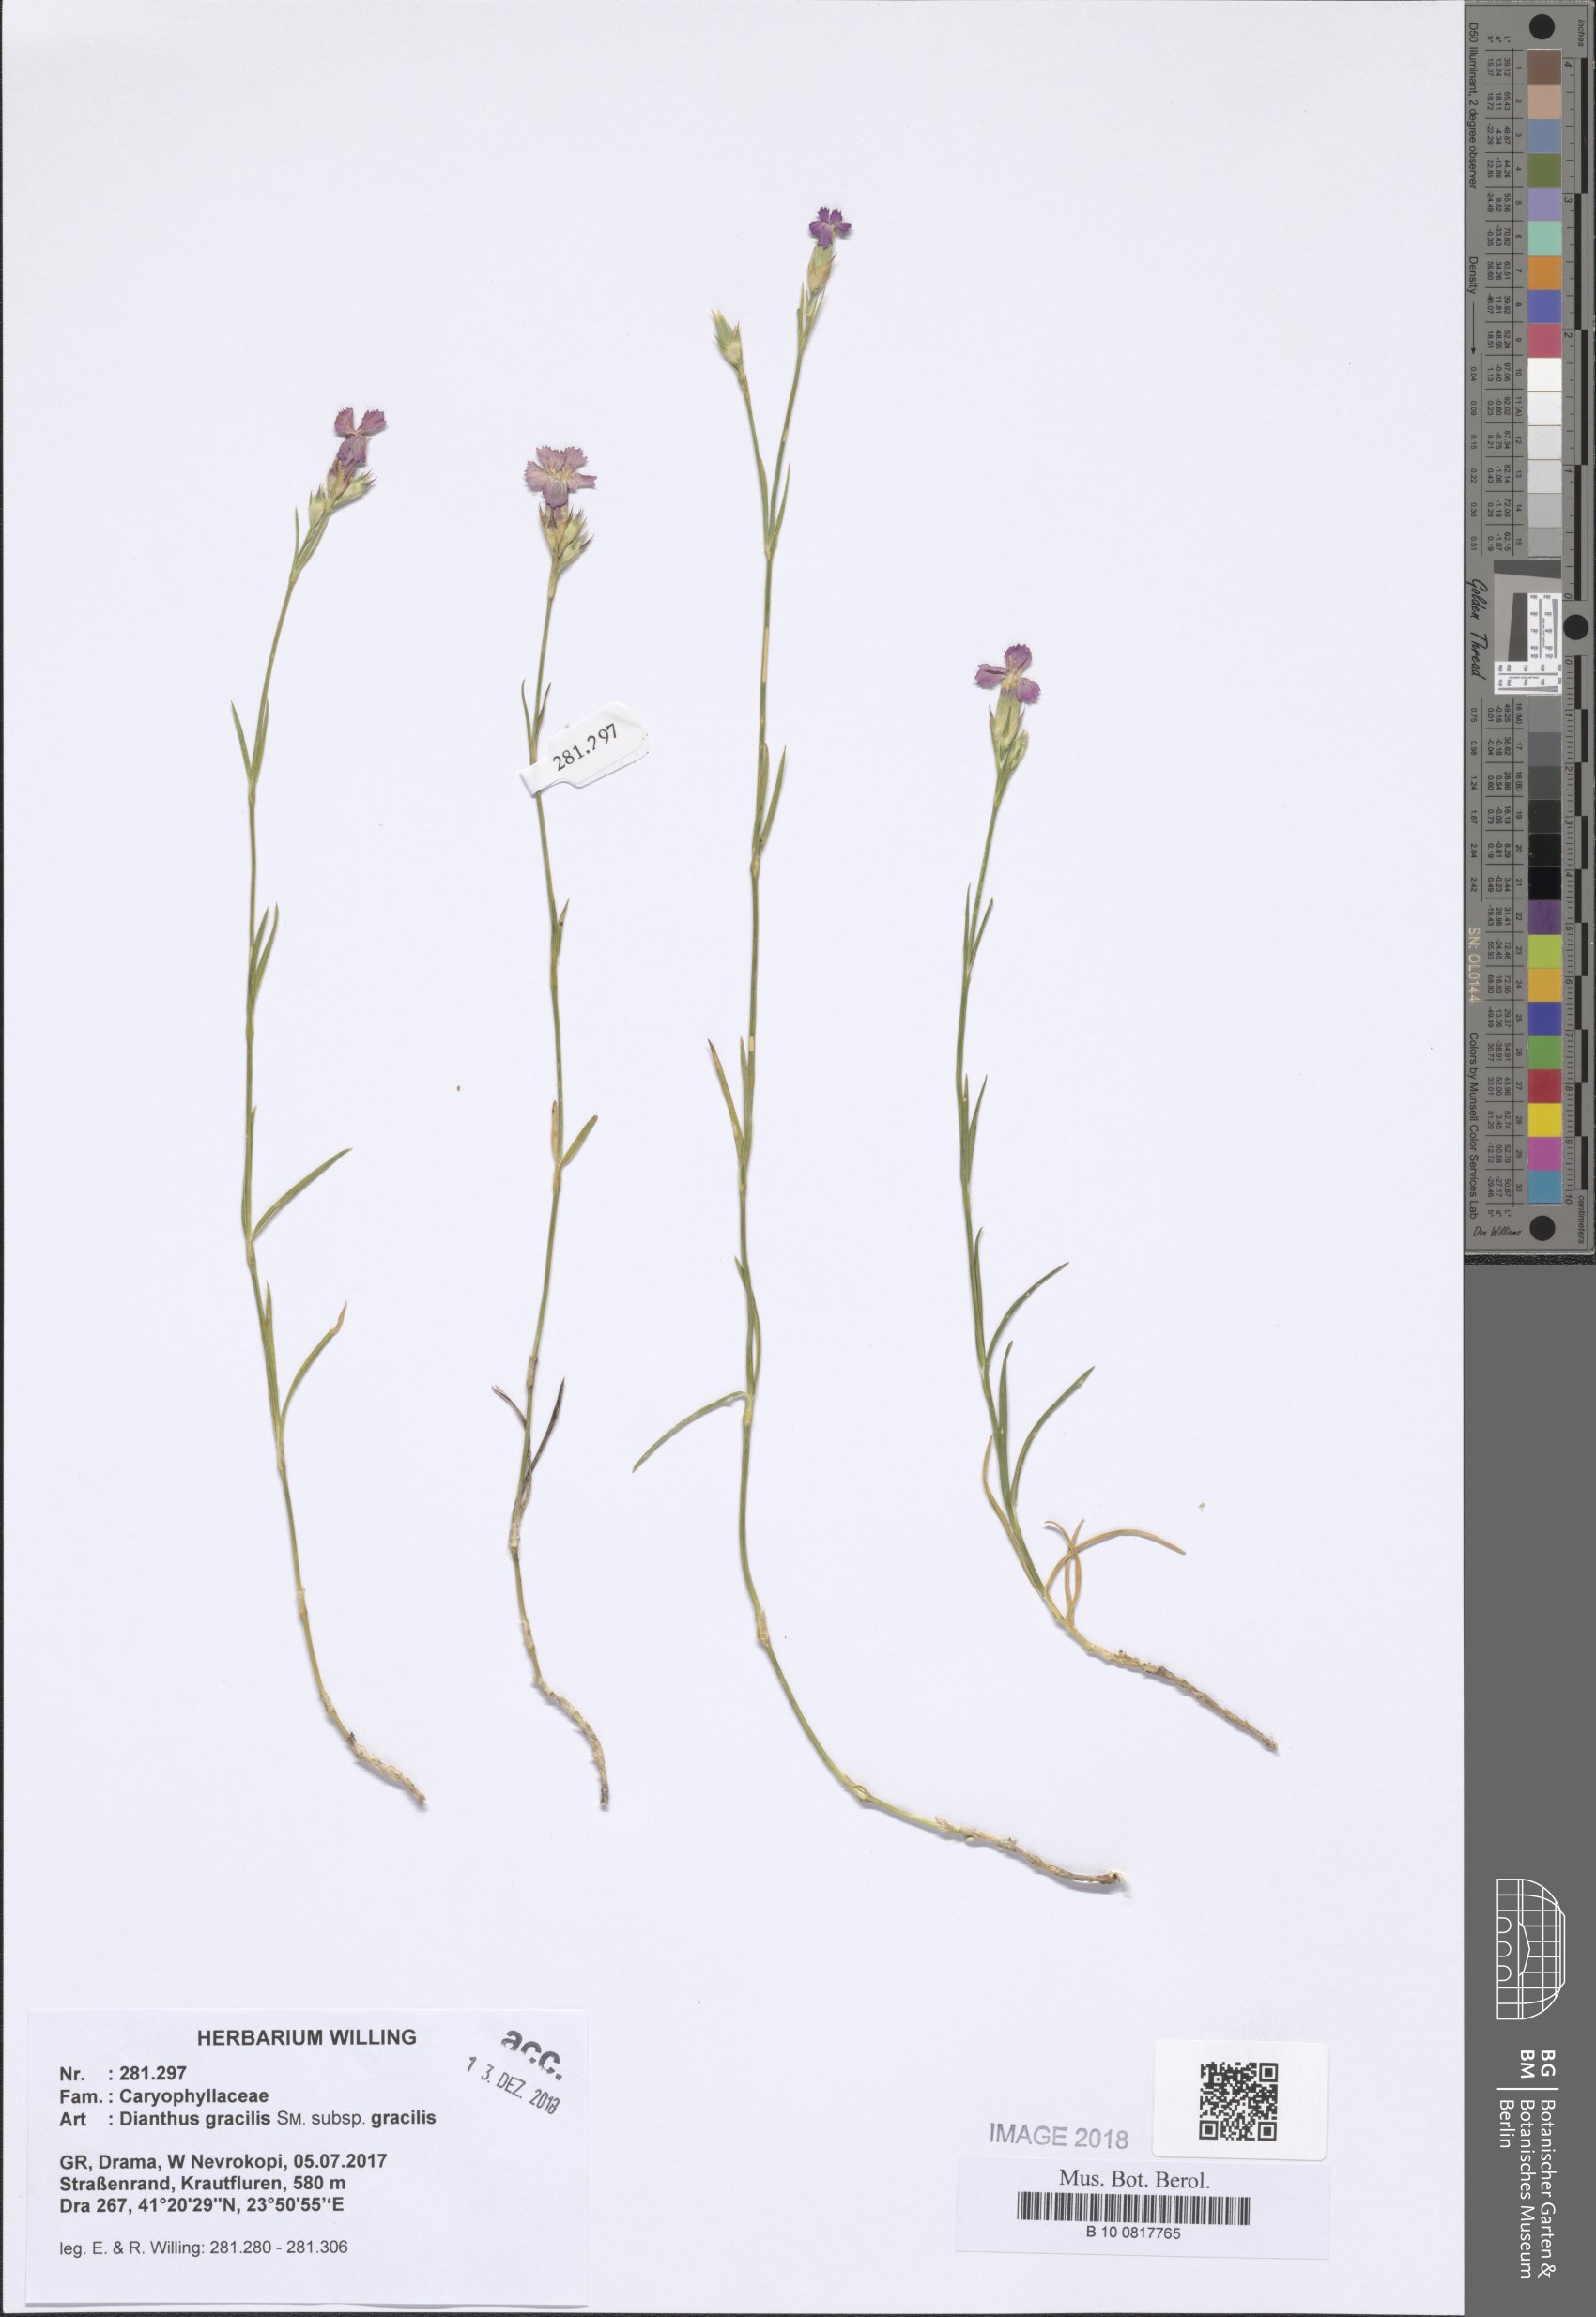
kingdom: Plantae
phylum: Tracheophyta
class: Magnoliopsida
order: Caryophyllales
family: Caryophyllaceae
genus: Dianthus
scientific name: Dianthus gracilis
